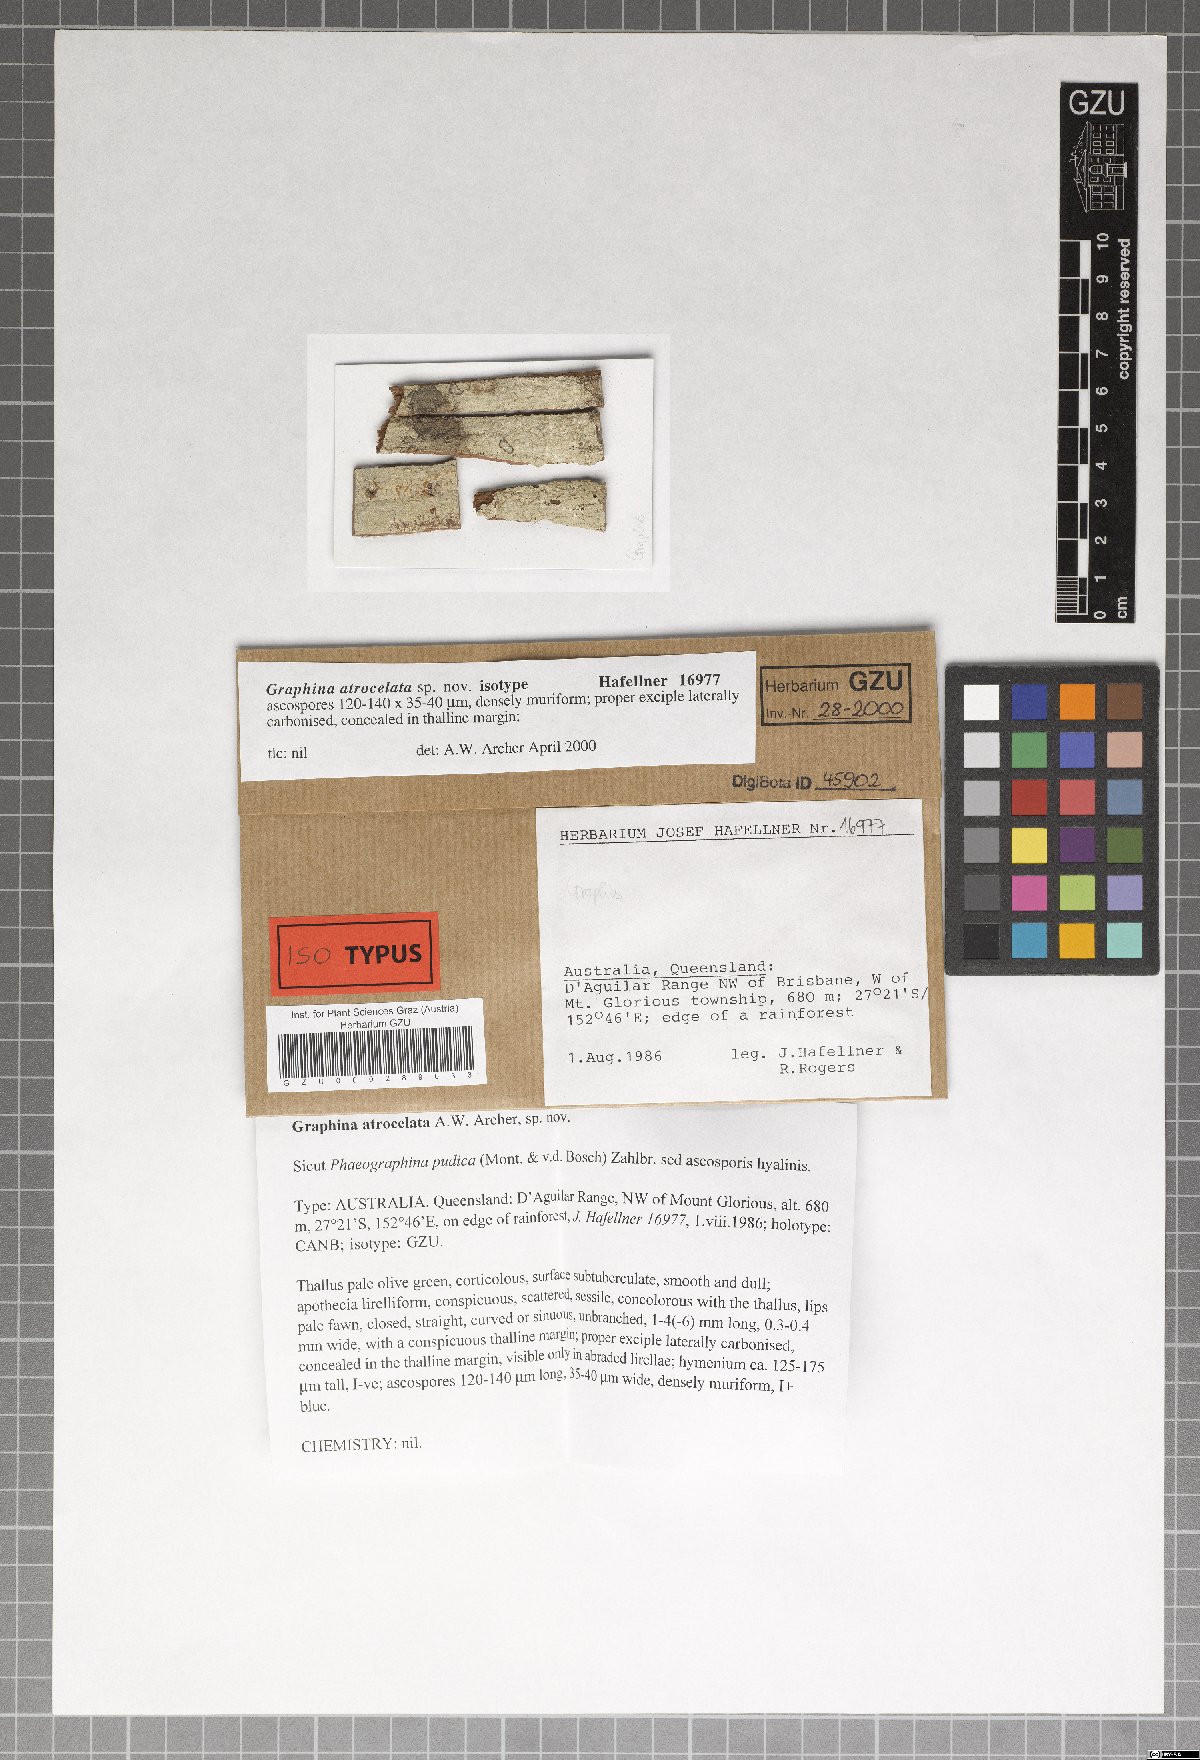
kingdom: Fungi
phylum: Ascomycota
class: Lecanoromycetes
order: Ostropales
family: Graphidaceae
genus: Allographa
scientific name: Allographa atrocelata
